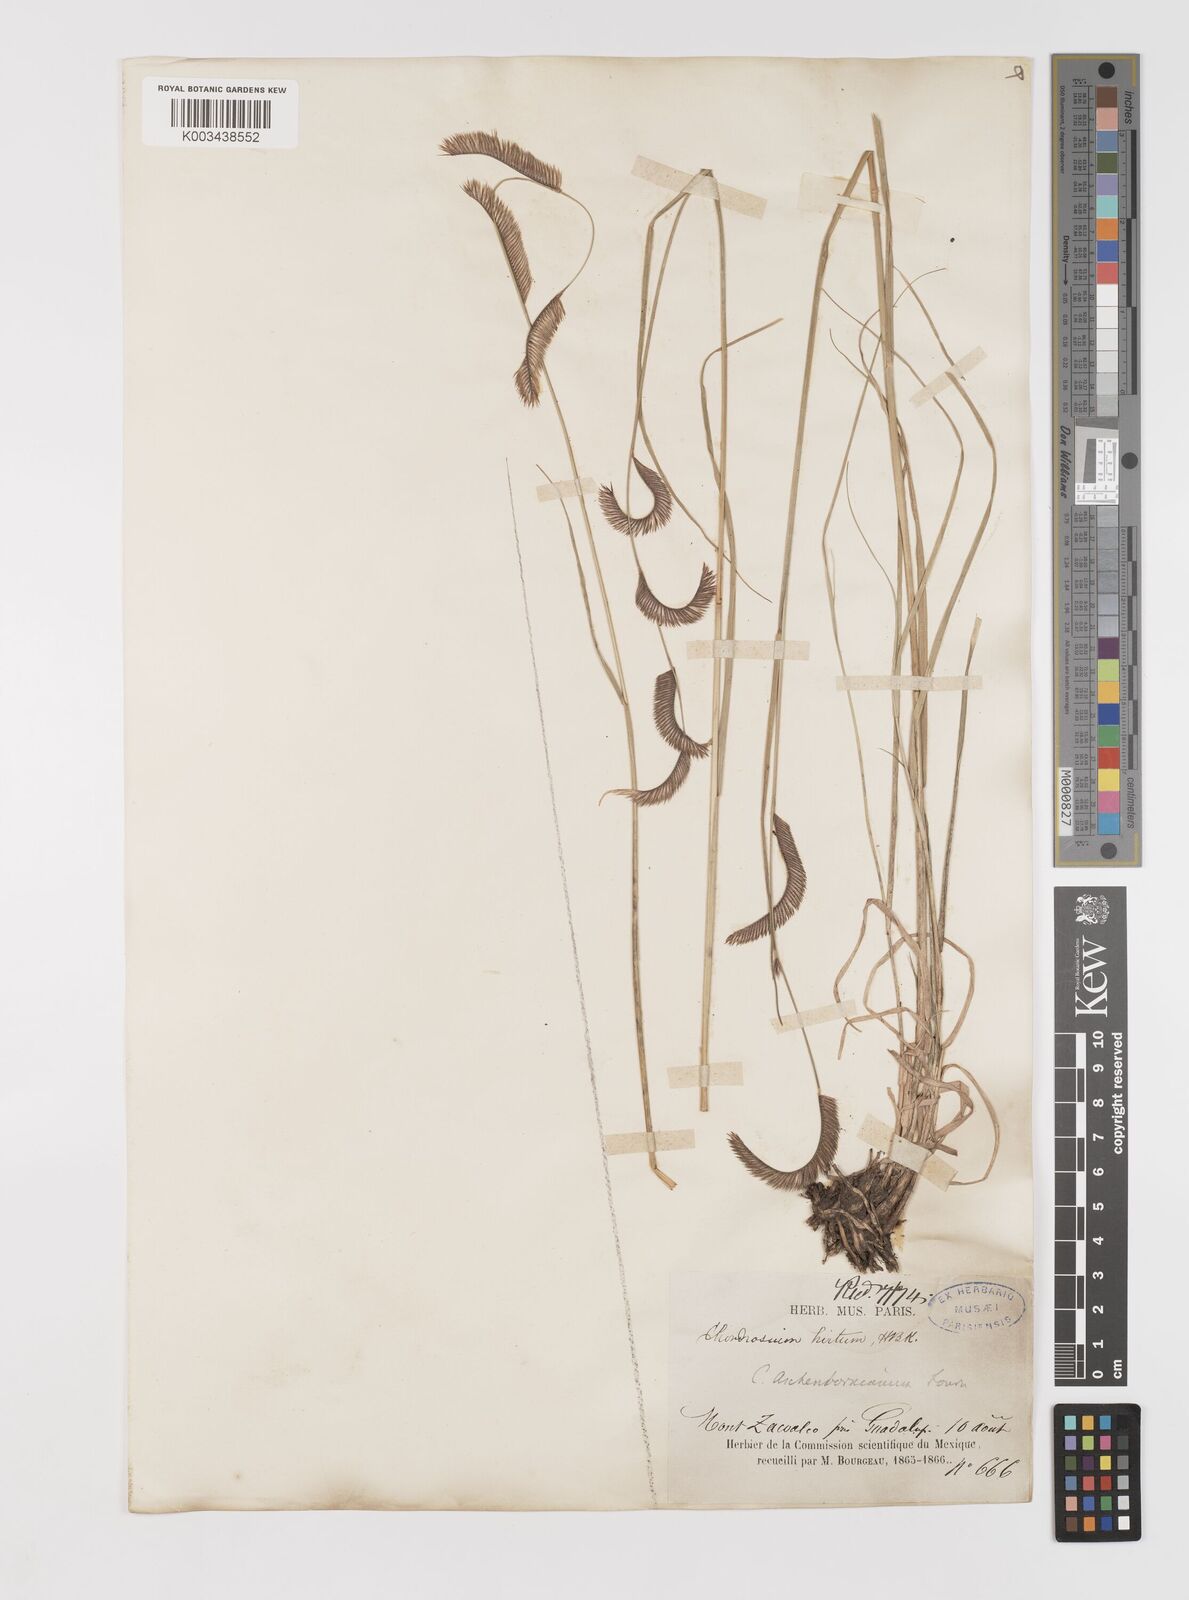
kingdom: Plantae
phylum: Tracheophyta
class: Liliopsida
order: Poales
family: Poaceae
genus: Bouteloua
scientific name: Bouteloua gracilis
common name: Blue grama
